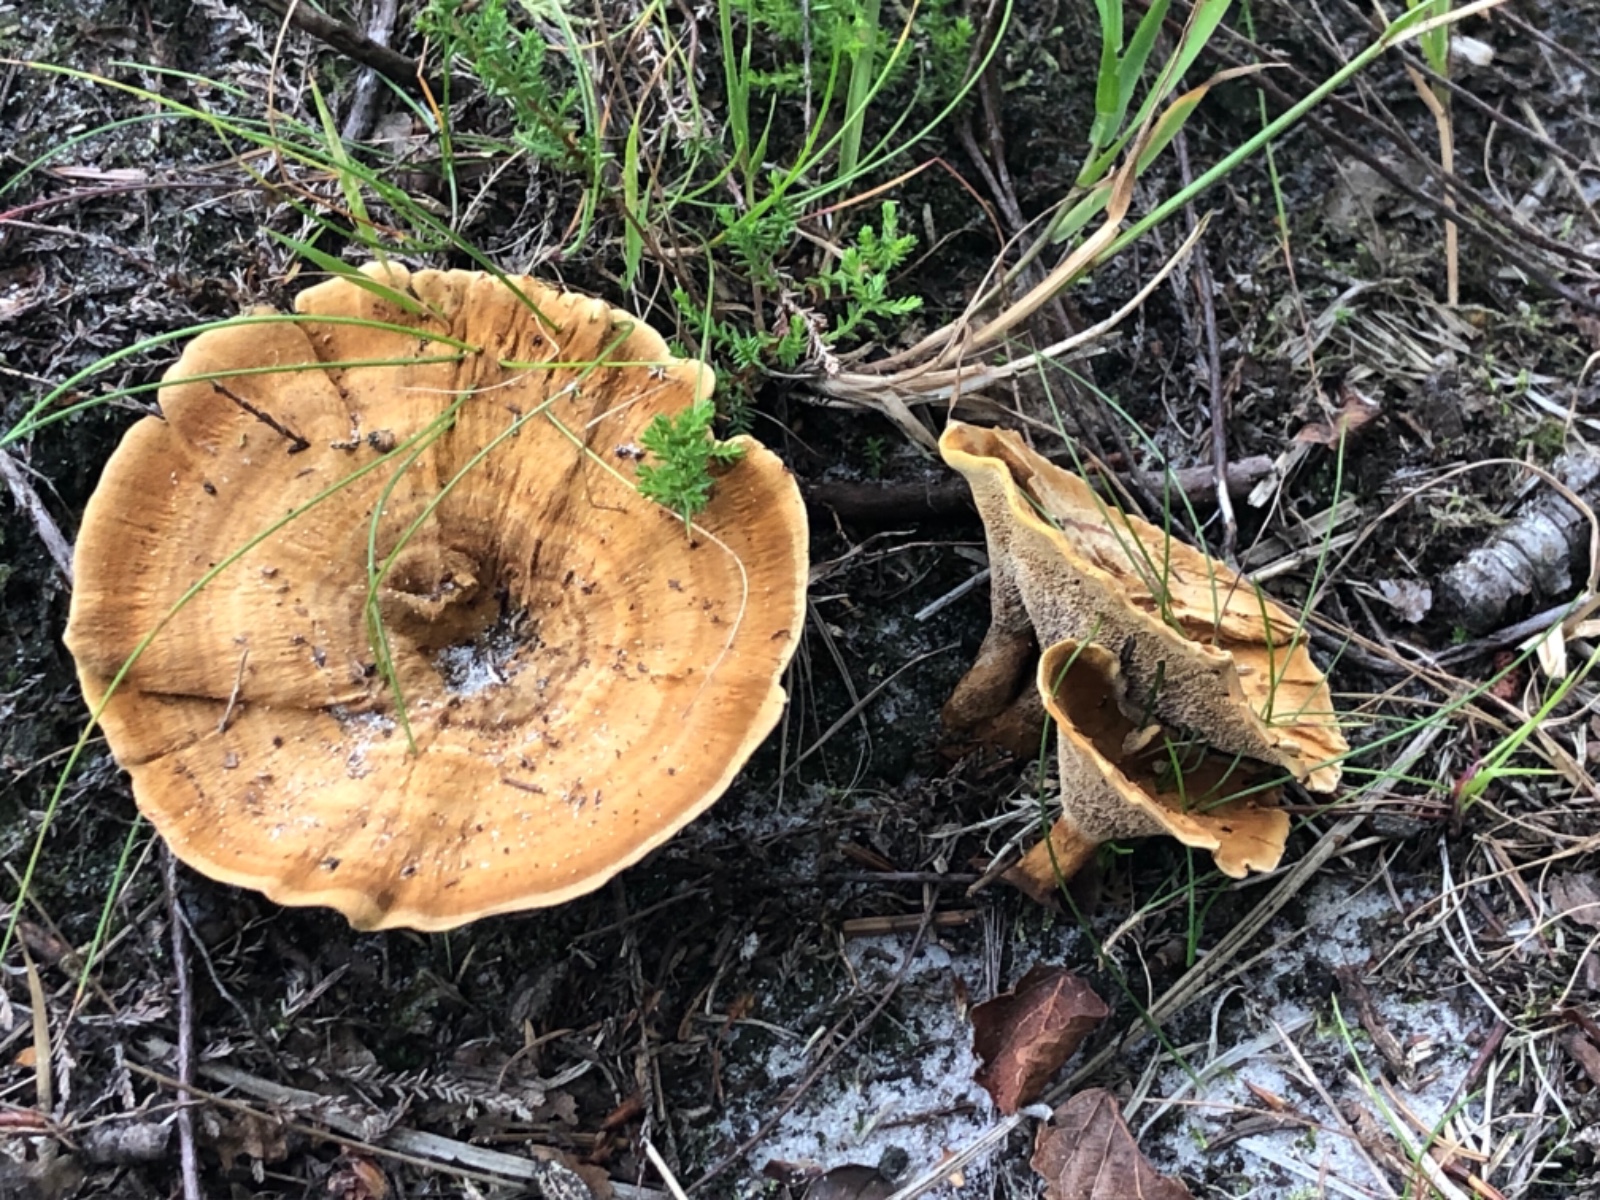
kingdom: Fungi
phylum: Basidiomycota
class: Agaricomycetes
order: Hymenochaetales
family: Hymenochaetaceae
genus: Coltricia
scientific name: Coltricia perennis
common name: almindelig sandporesvamp
